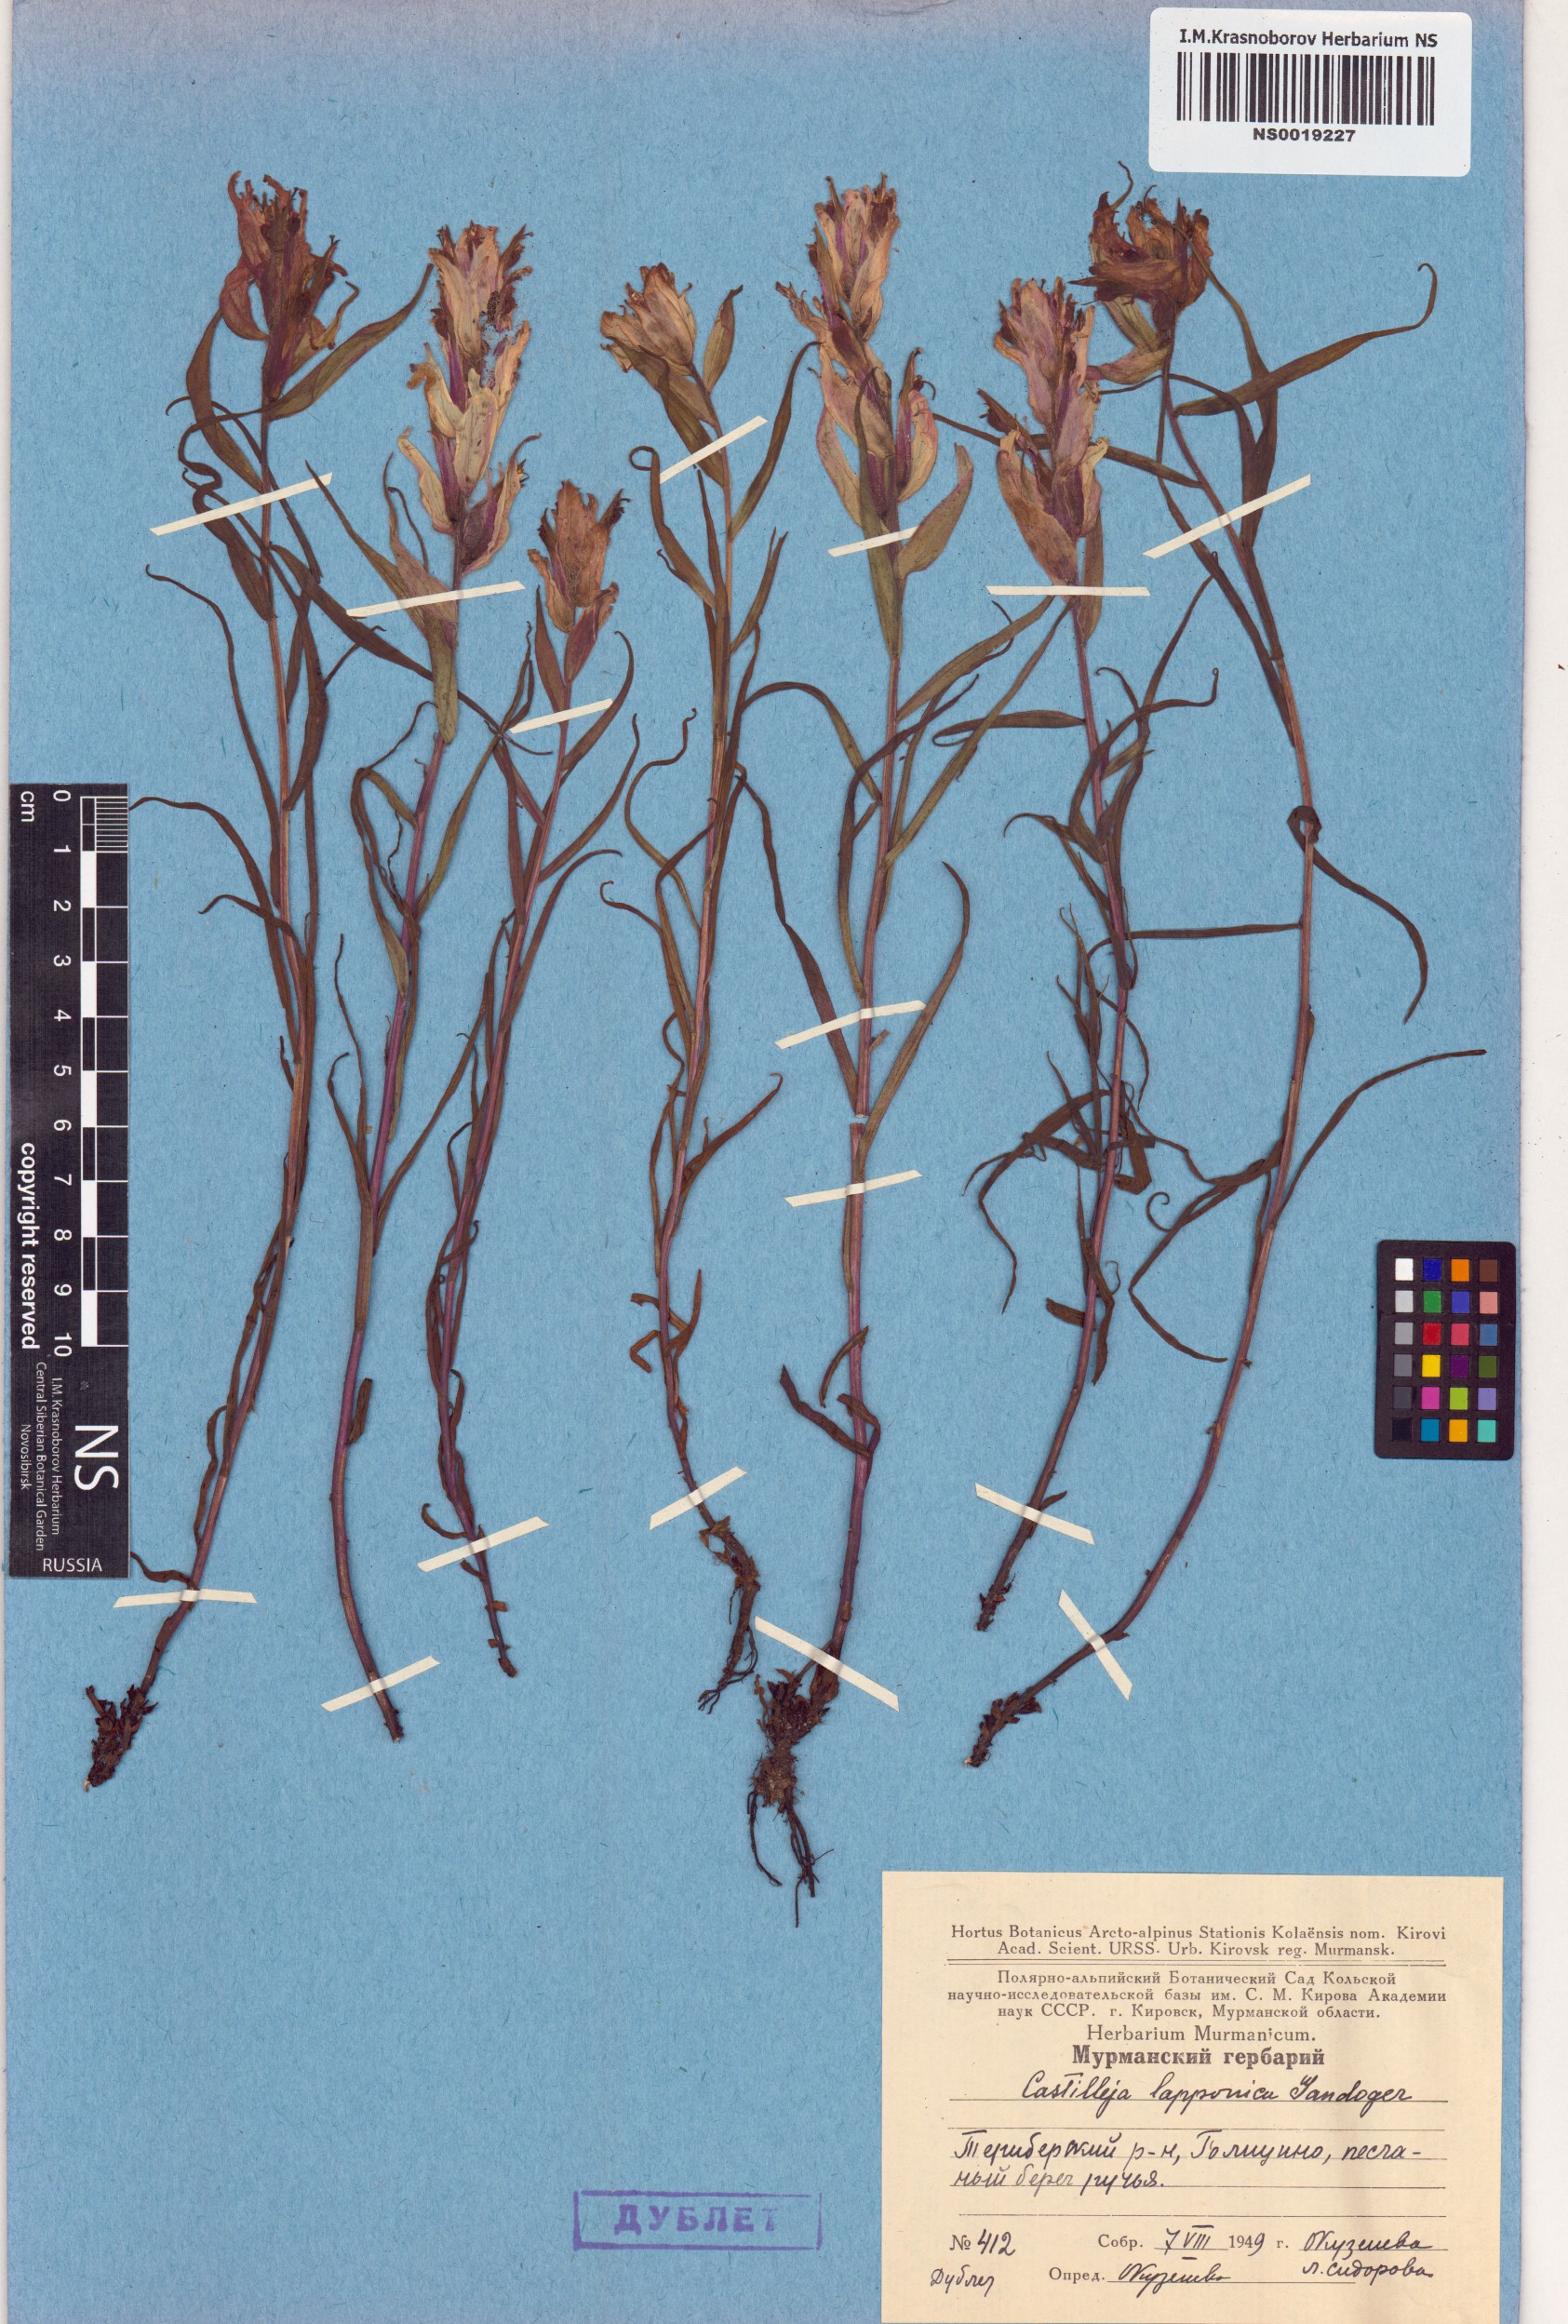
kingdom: Plantae
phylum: Tracheophyta
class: Magnoliopsida
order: Lamiales
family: Orobanchaceae
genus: Castilleja
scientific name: Castilleja lapponica
